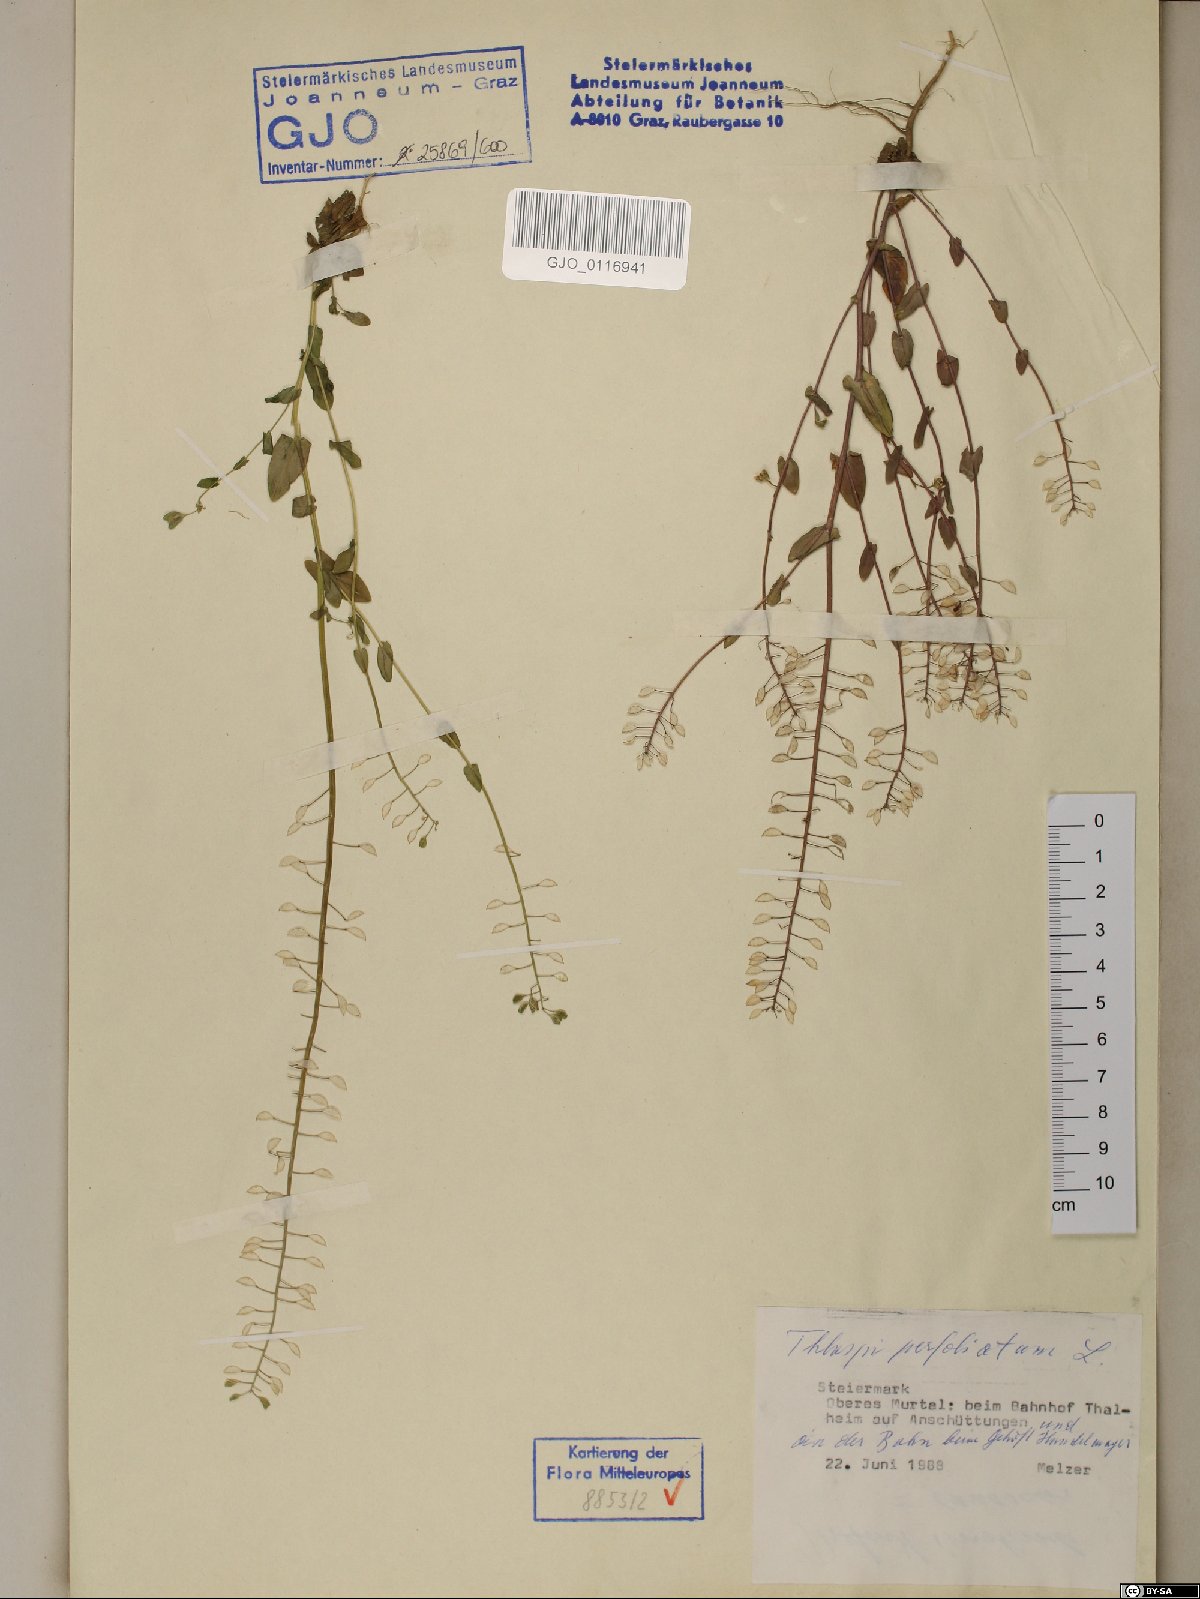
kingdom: Plantae
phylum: Tracheophyta
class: Magnoliopsida
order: Brassicales
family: Brassicaceae
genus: Noccaea
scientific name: Noccaea perfoliata
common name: Perfoliate pennycress
